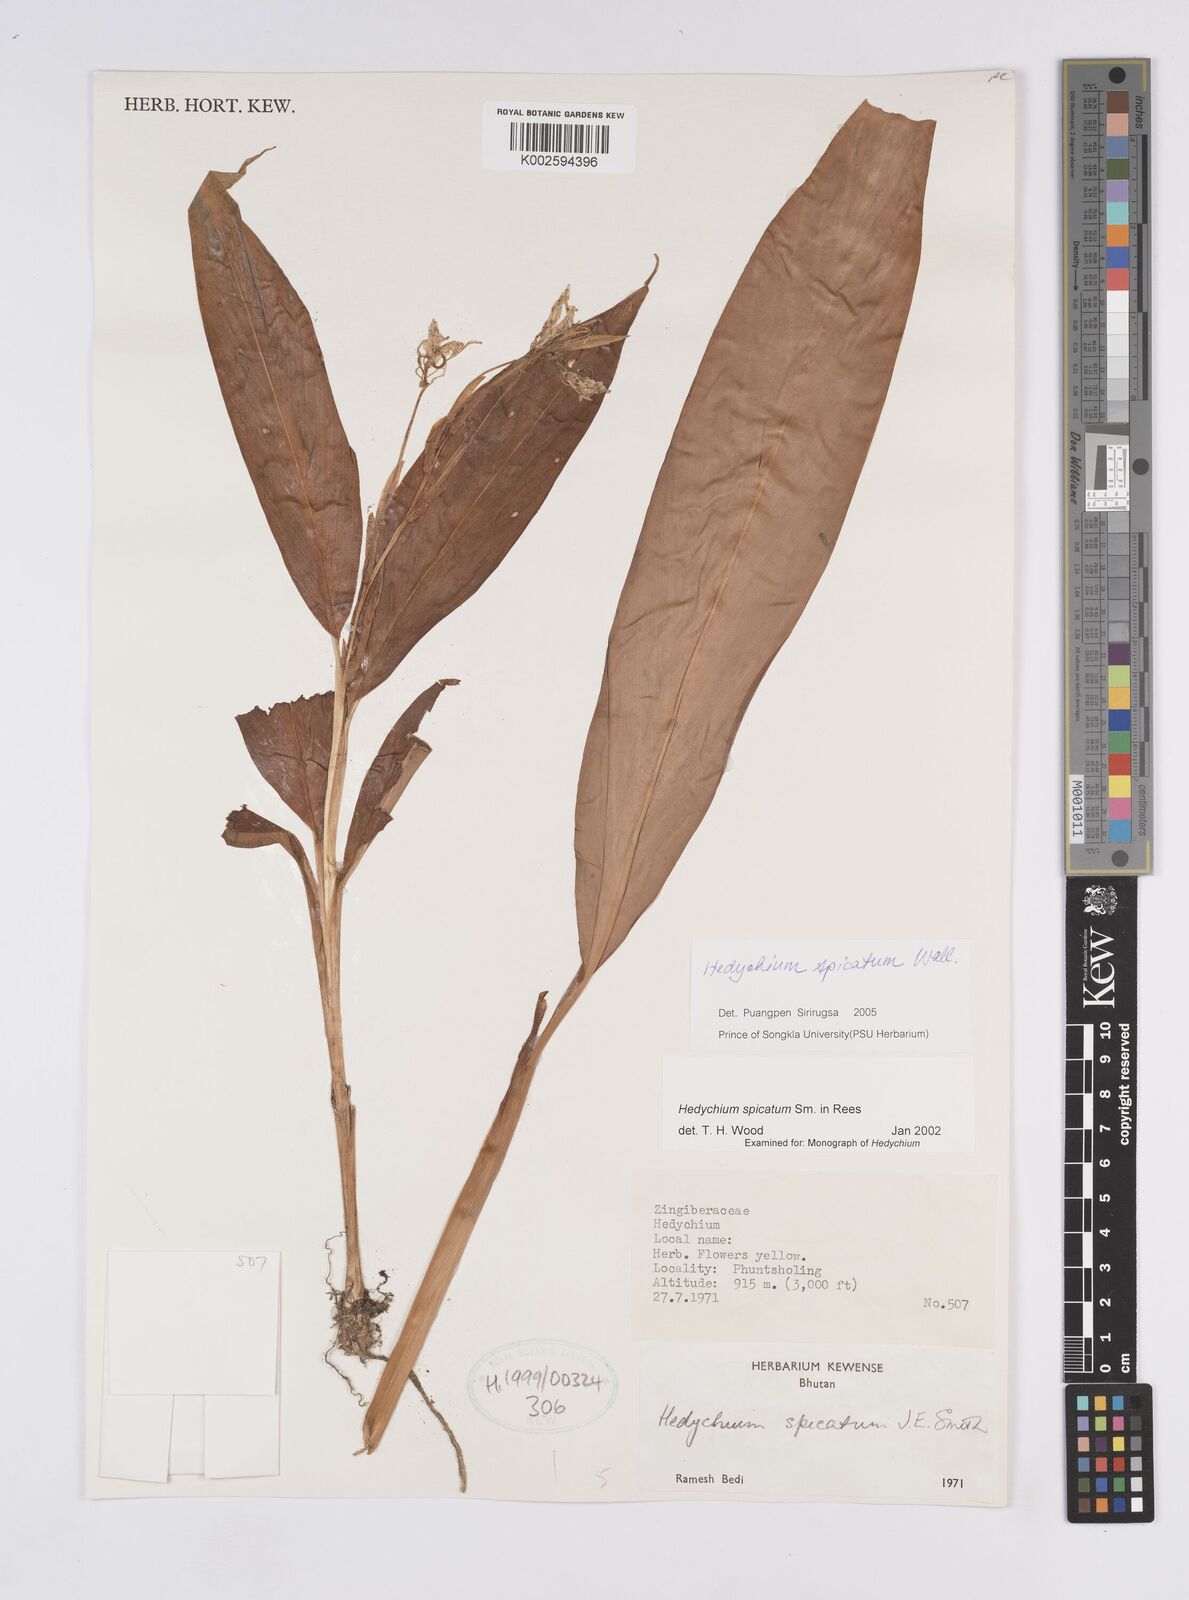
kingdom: Plantae
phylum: Tracheophyta
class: Liliopsida
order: Zingiberales
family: Zingiberaceae
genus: Hedychium
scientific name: Hedychium spicatum
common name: Spiked ginger-lily
